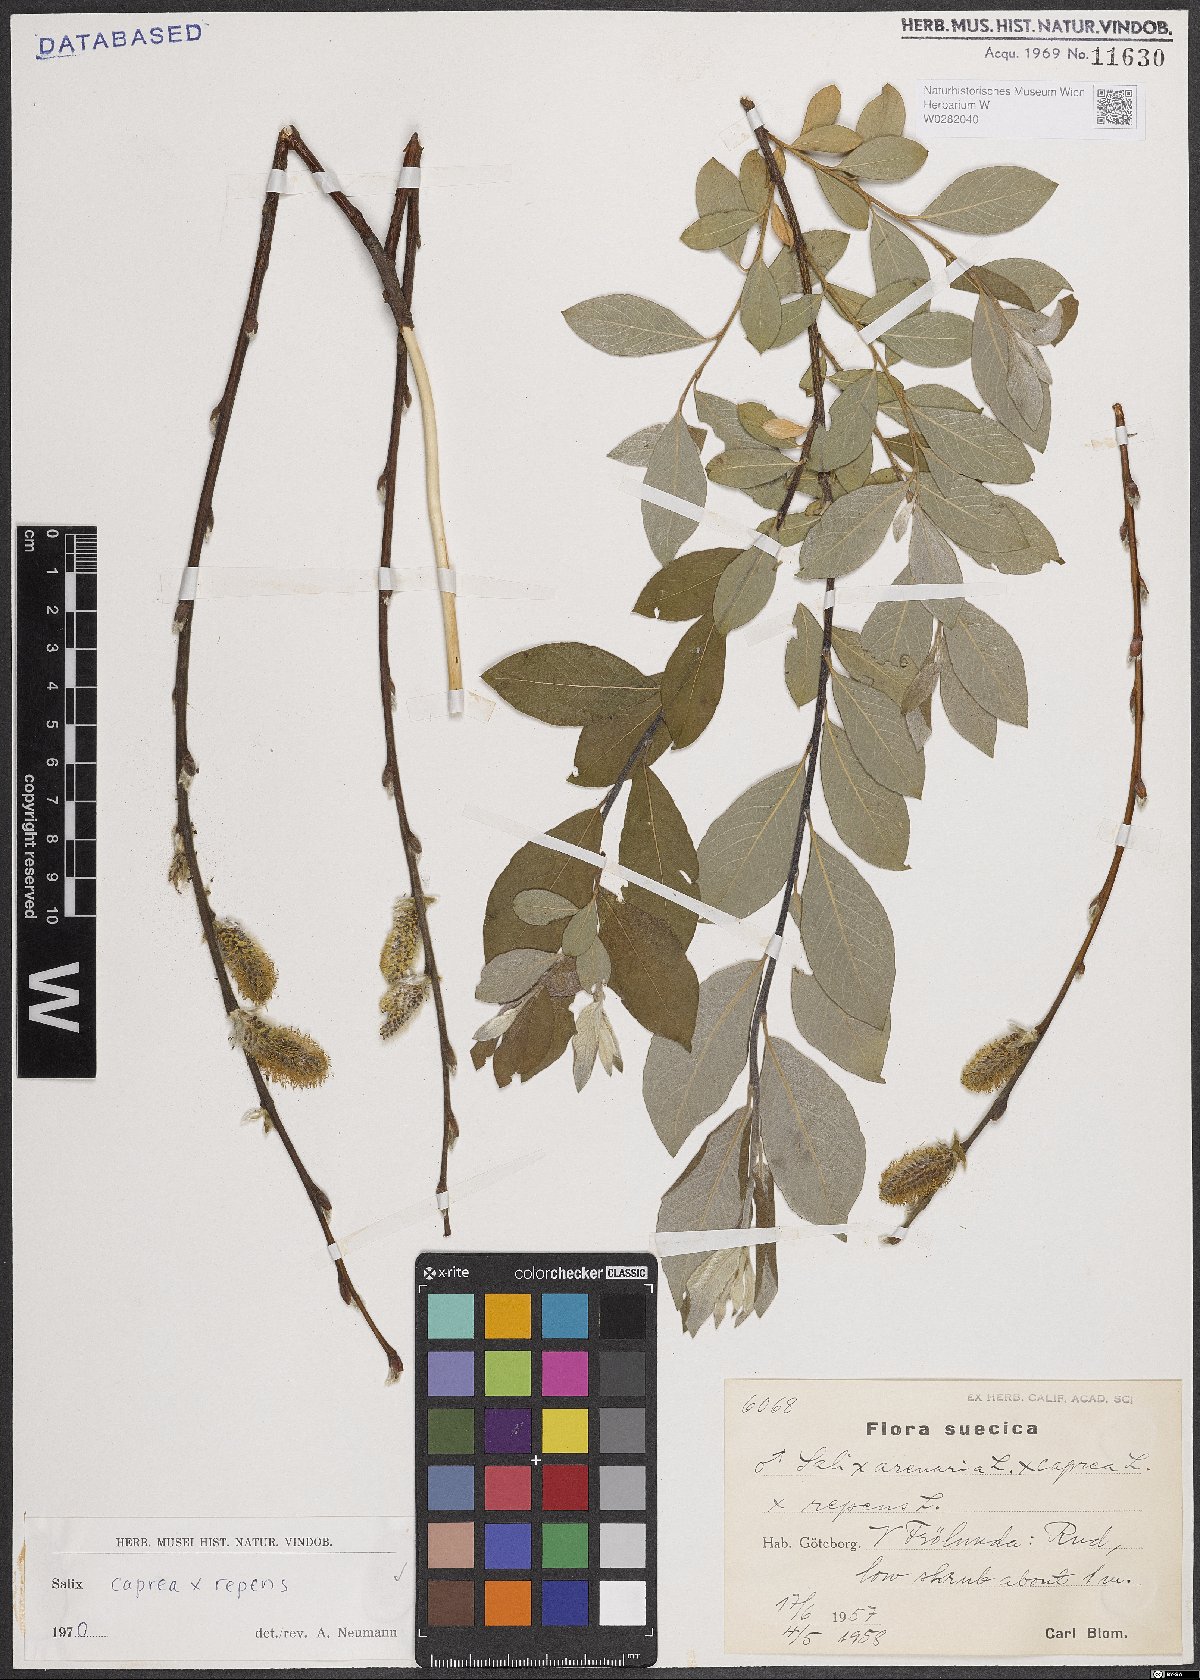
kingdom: Plantae
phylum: Tracheophyta
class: Magnoliopsida
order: Malpighiales
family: Salicaceae
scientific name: Salicaceae
